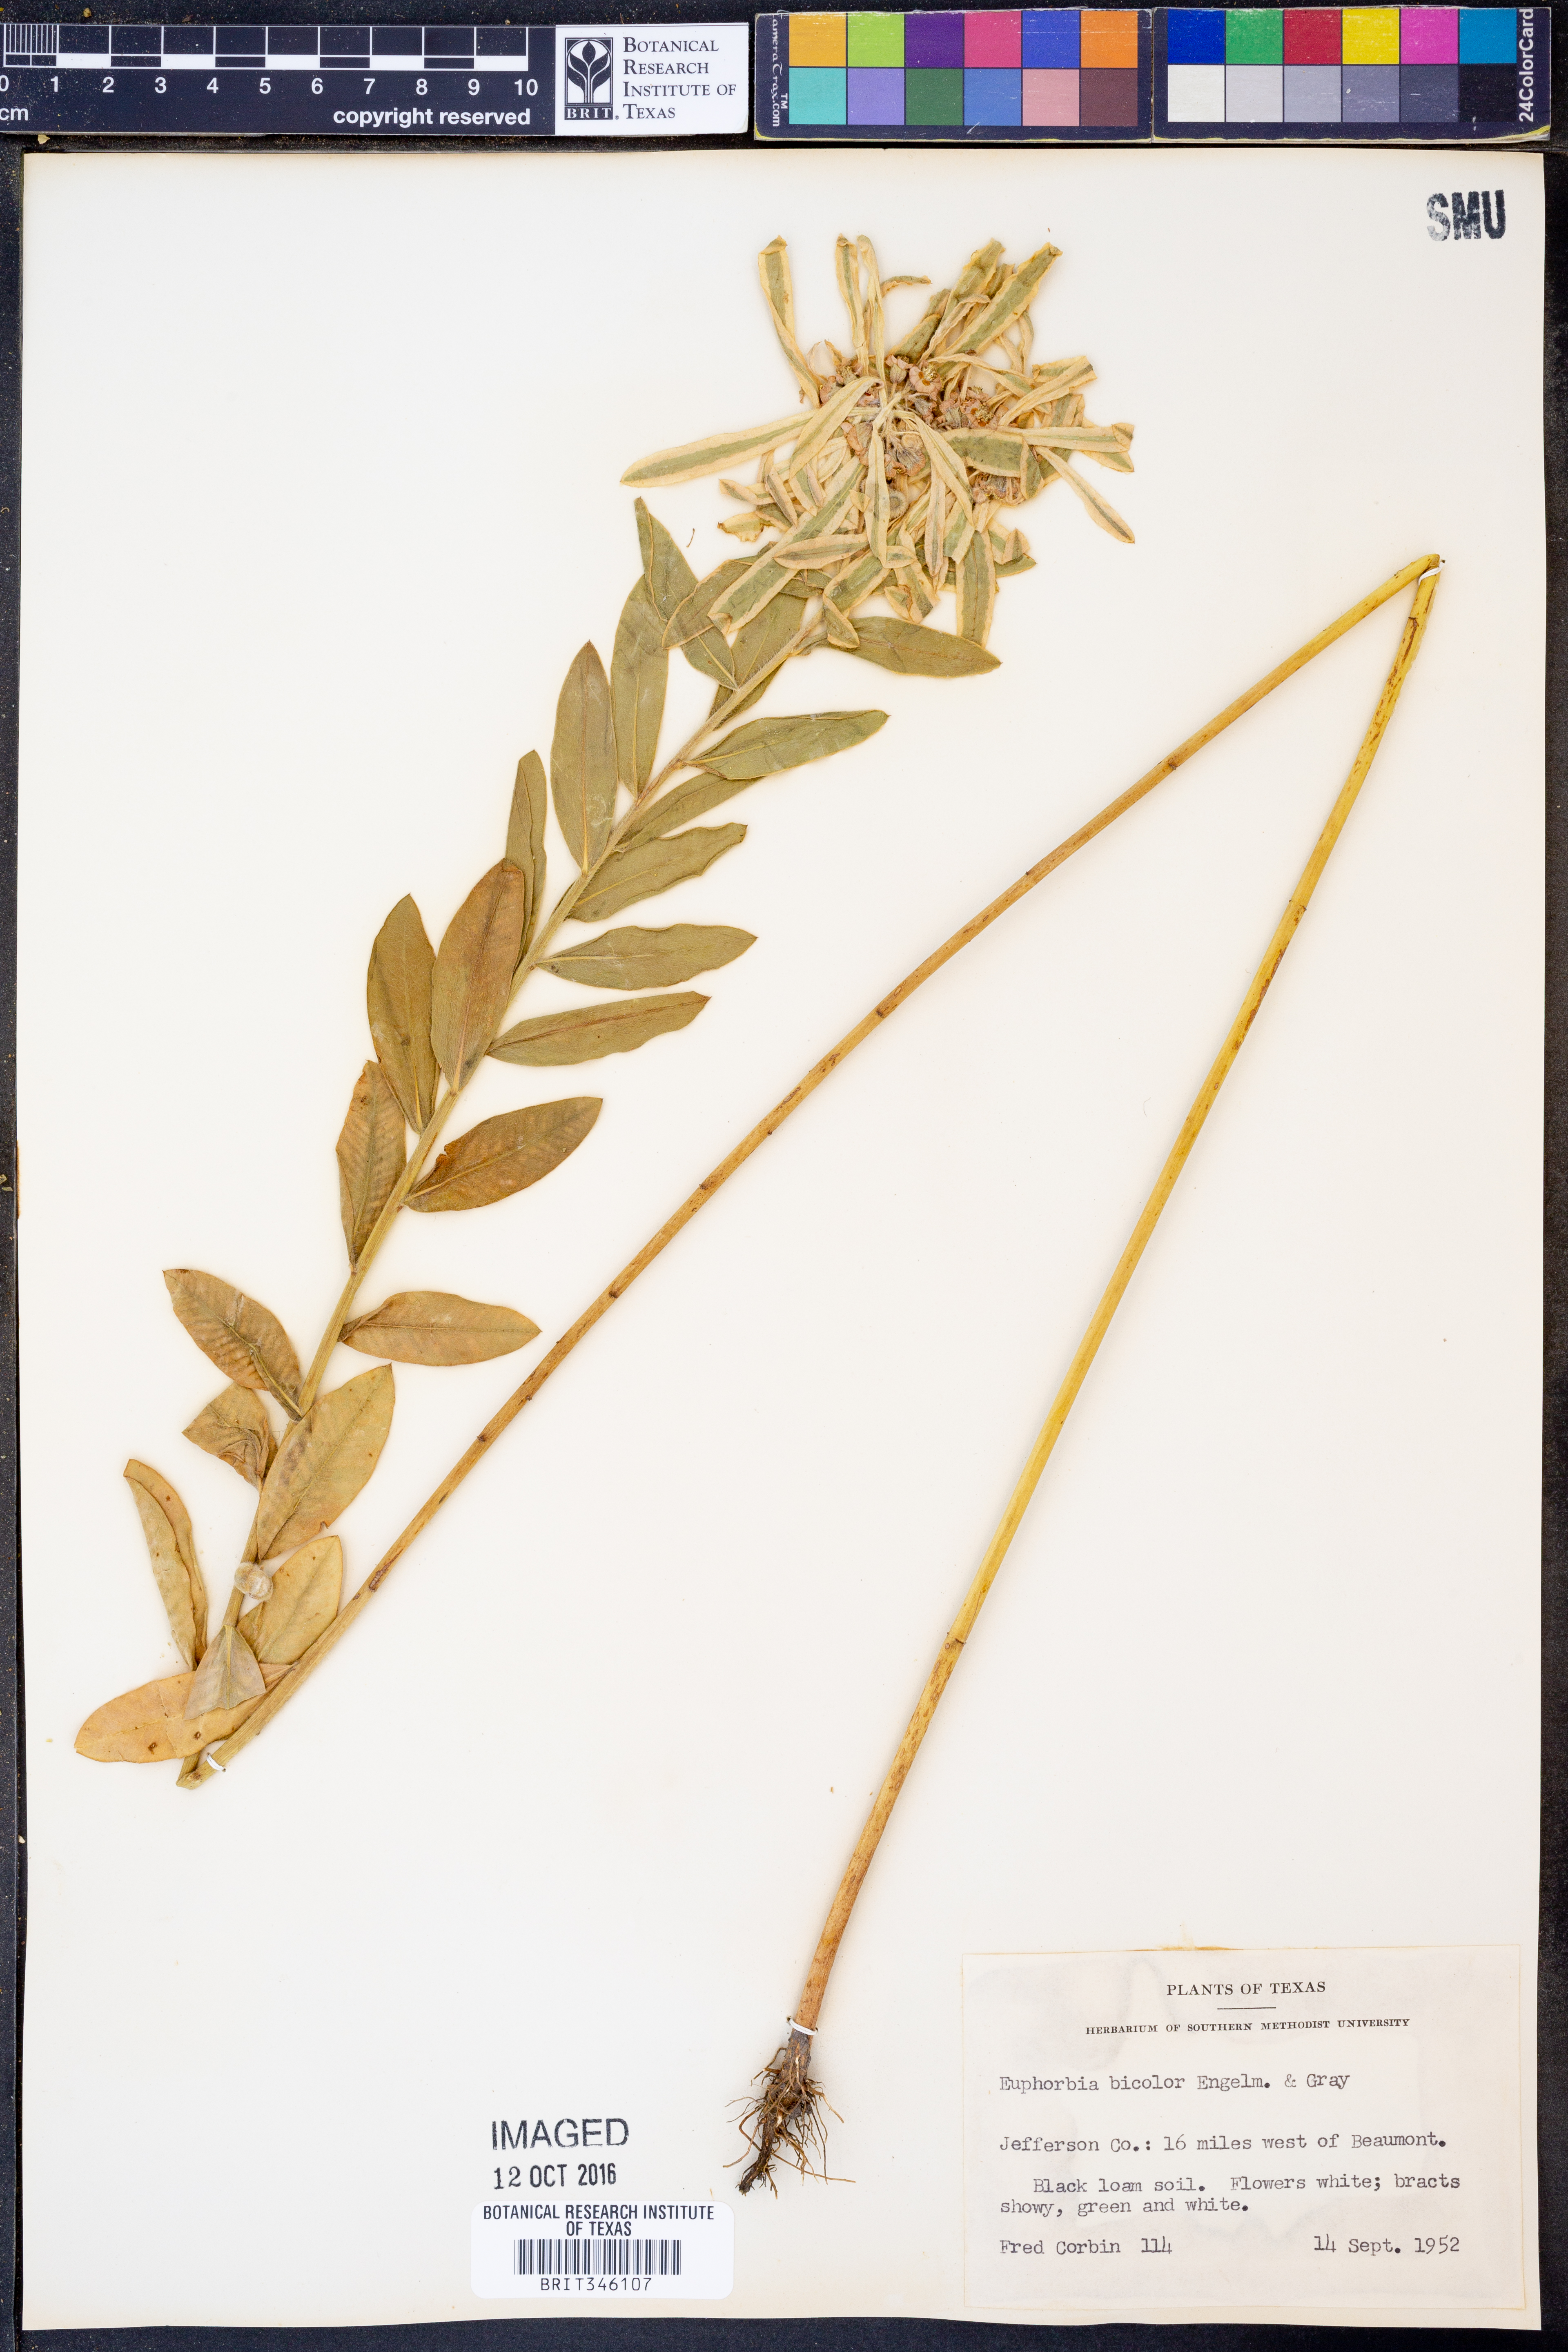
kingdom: Plantae
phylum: Tracheophyta
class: Magnoliopsida
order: Malpighiales
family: Euphorbiaceae
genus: Euphorbia
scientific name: Euphorbia bicolor
